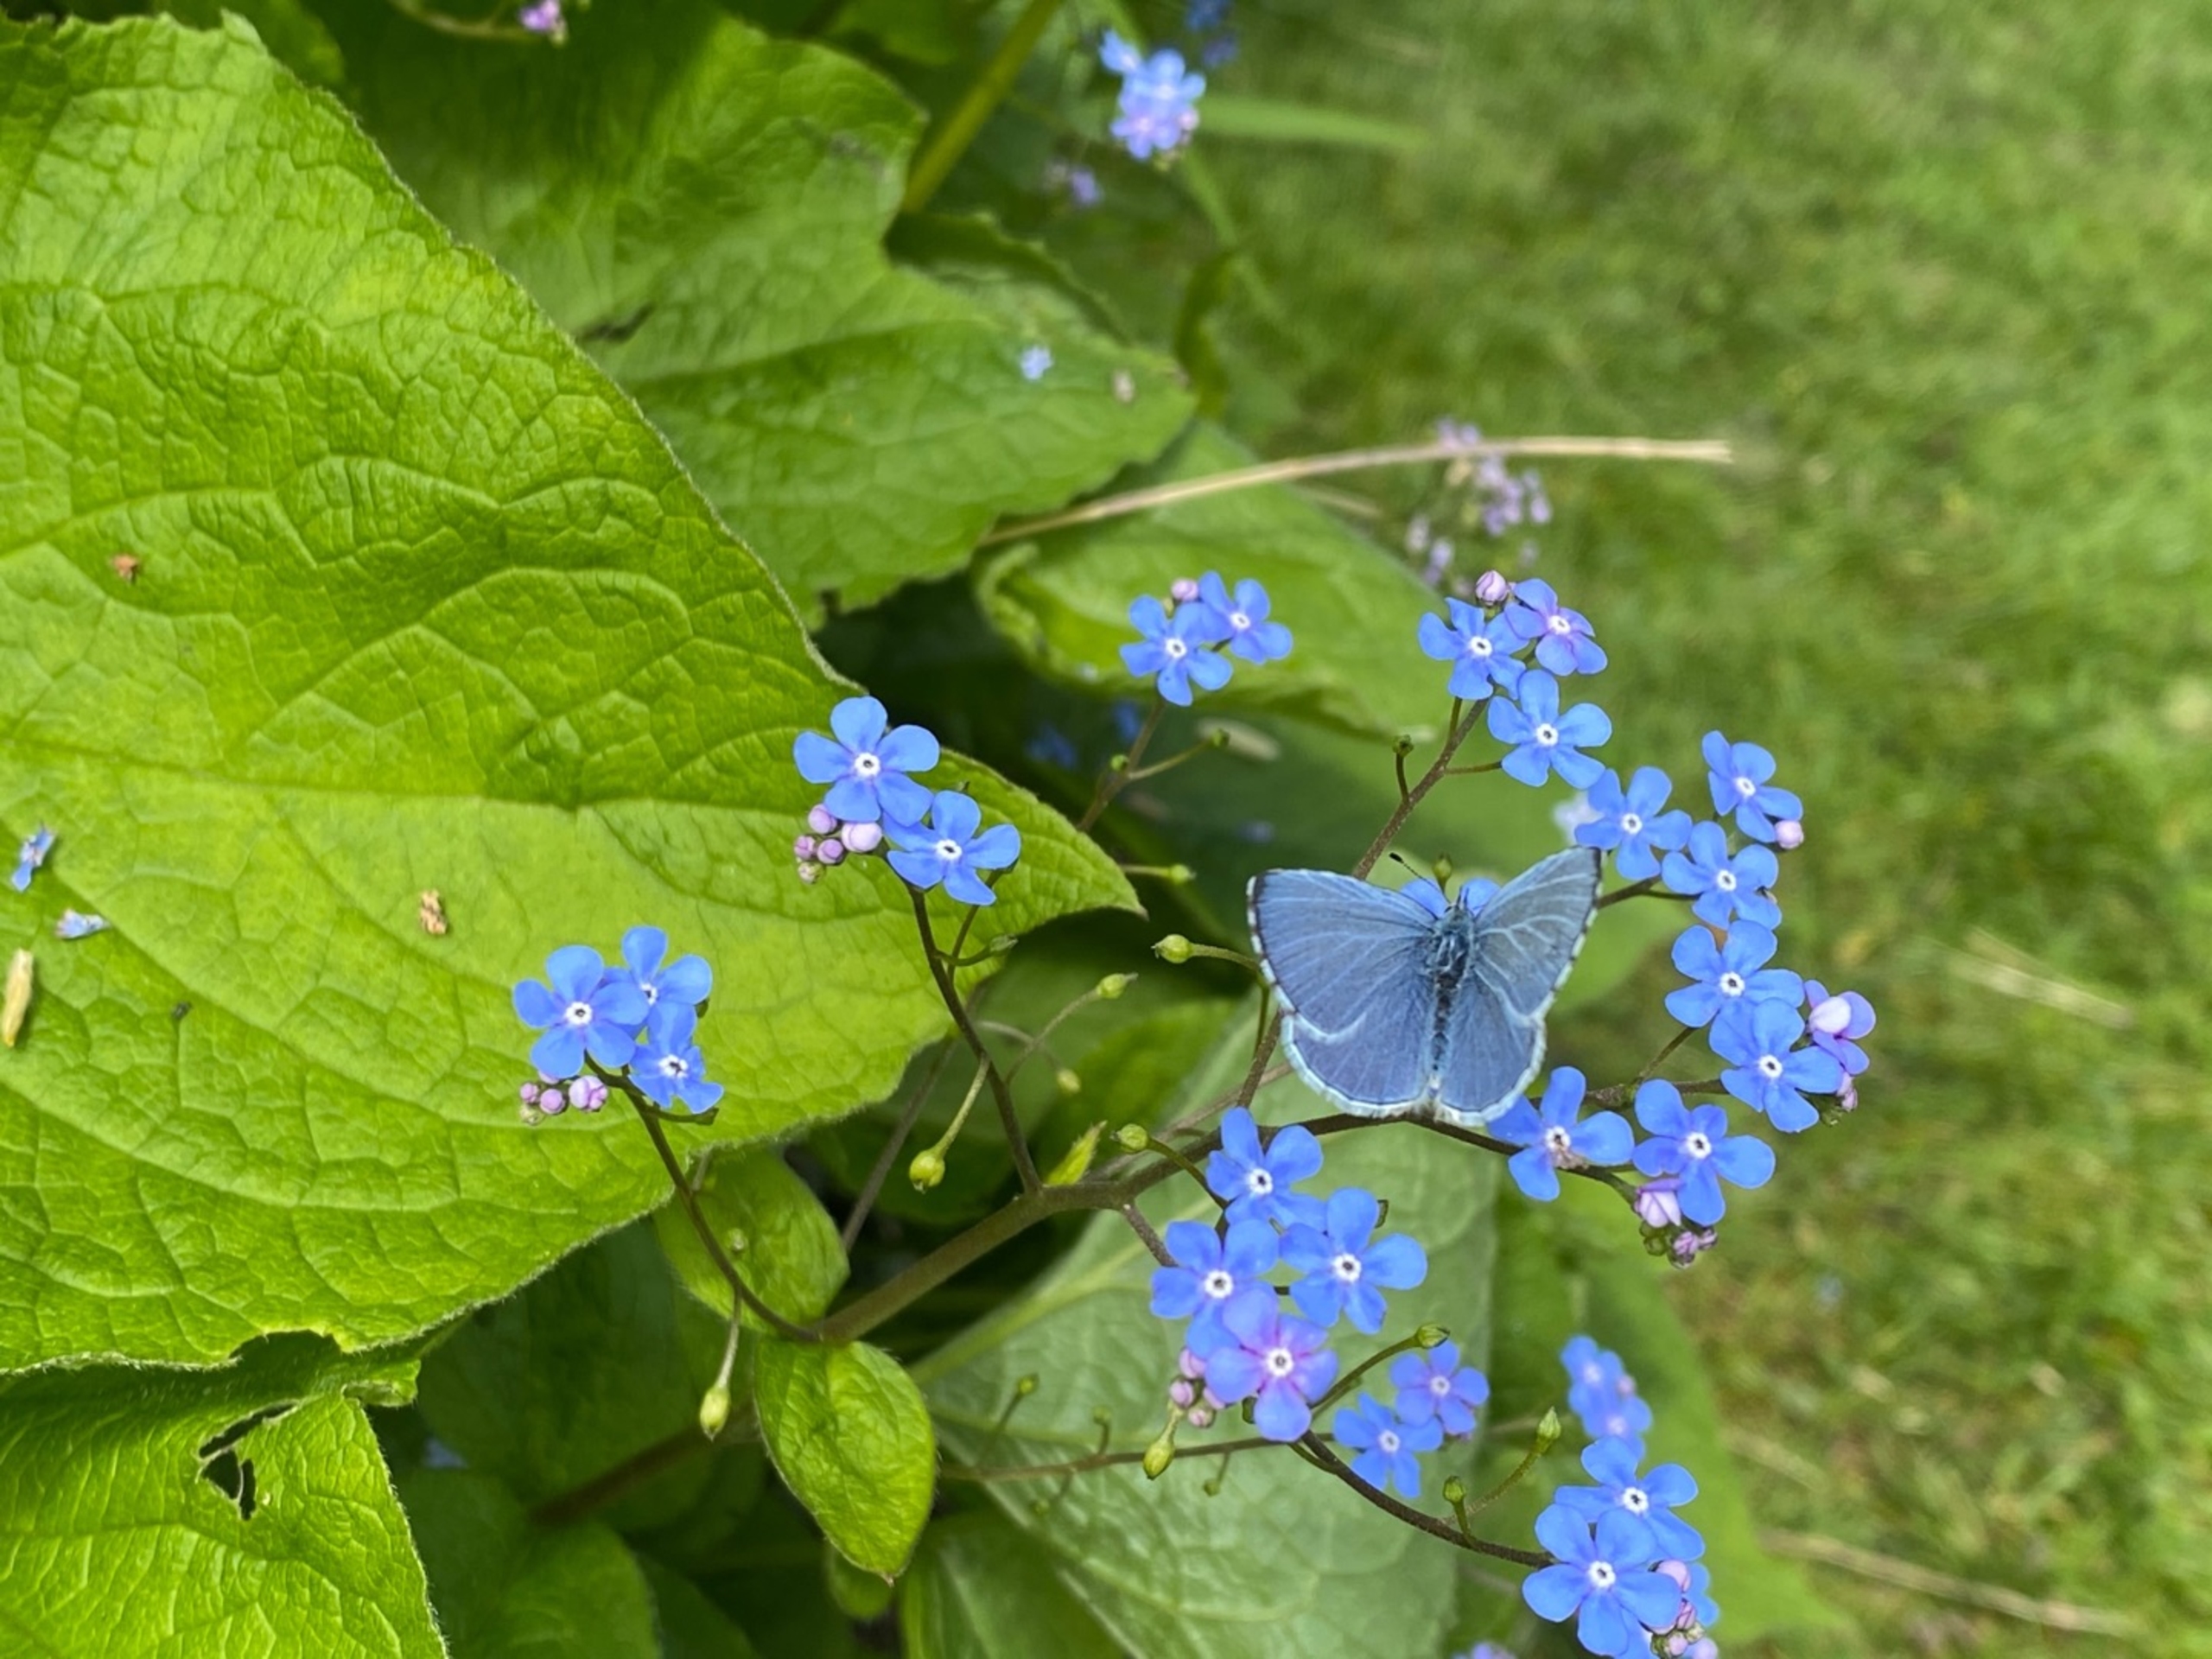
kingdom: Animalia
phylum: Arthropoda
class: Insecta
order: Lepidoptera
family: Lycaenidae
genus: Celastrina
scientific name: Celastrina argiolus
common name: Skovblåfugl
